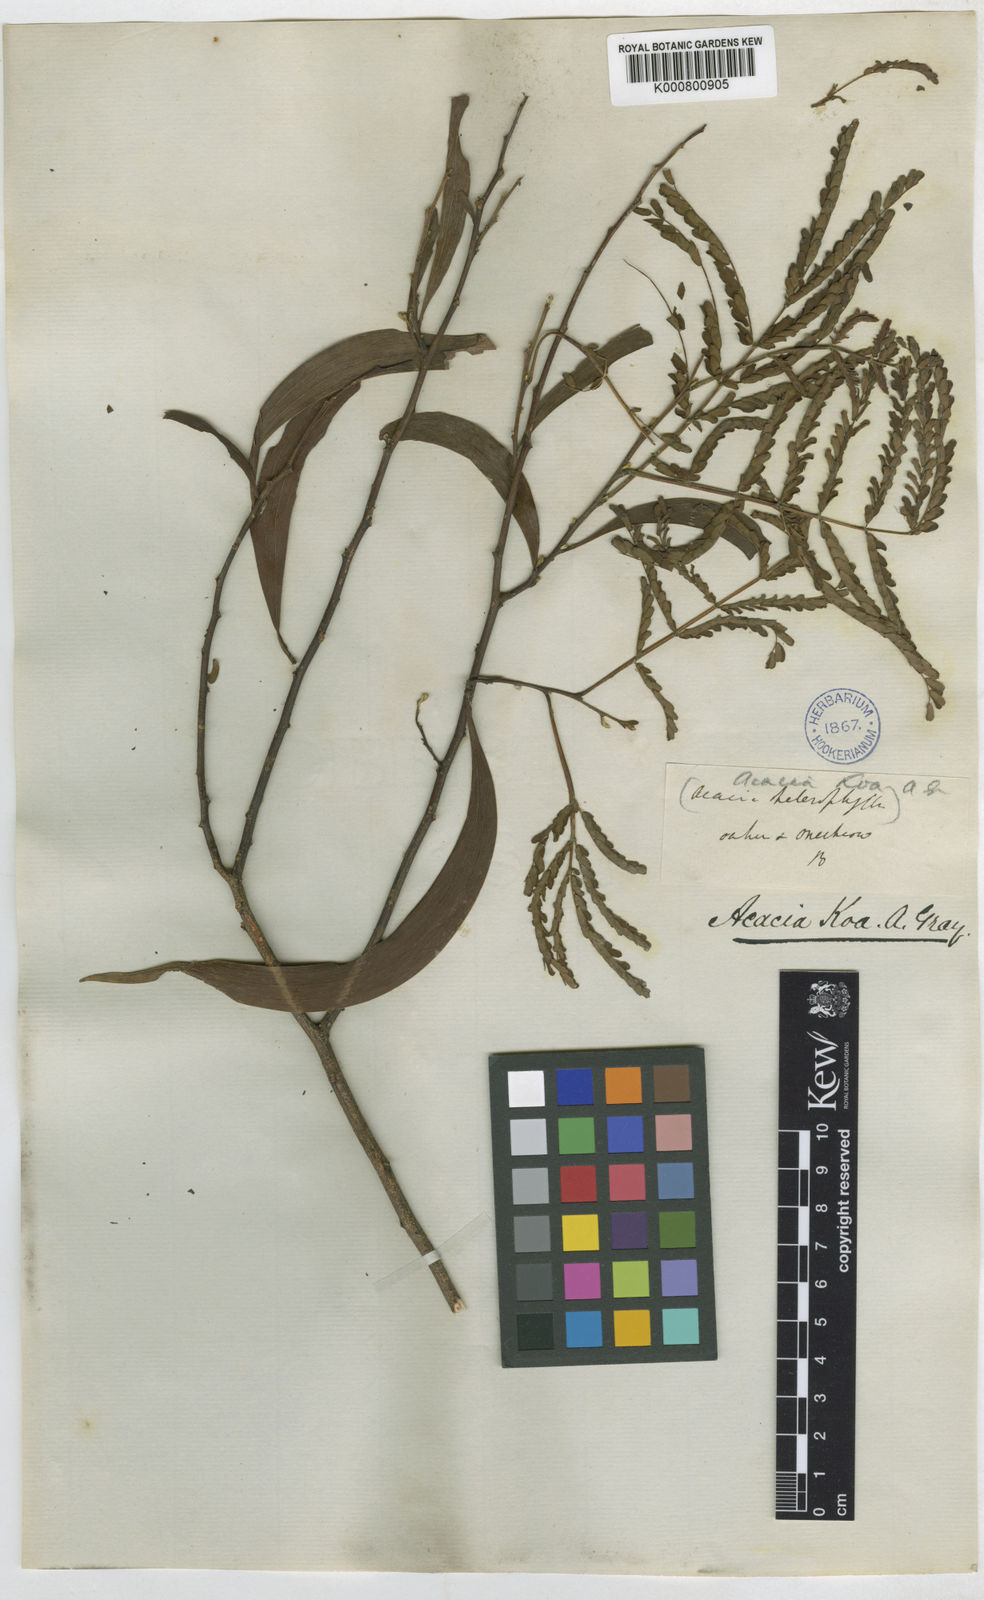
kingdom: Plantae
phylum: Tracheophyta
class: Magnoliopsida
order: Fabales
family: Fabaceae
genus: Acacia
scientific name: Acacia koa
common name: Gray koa
